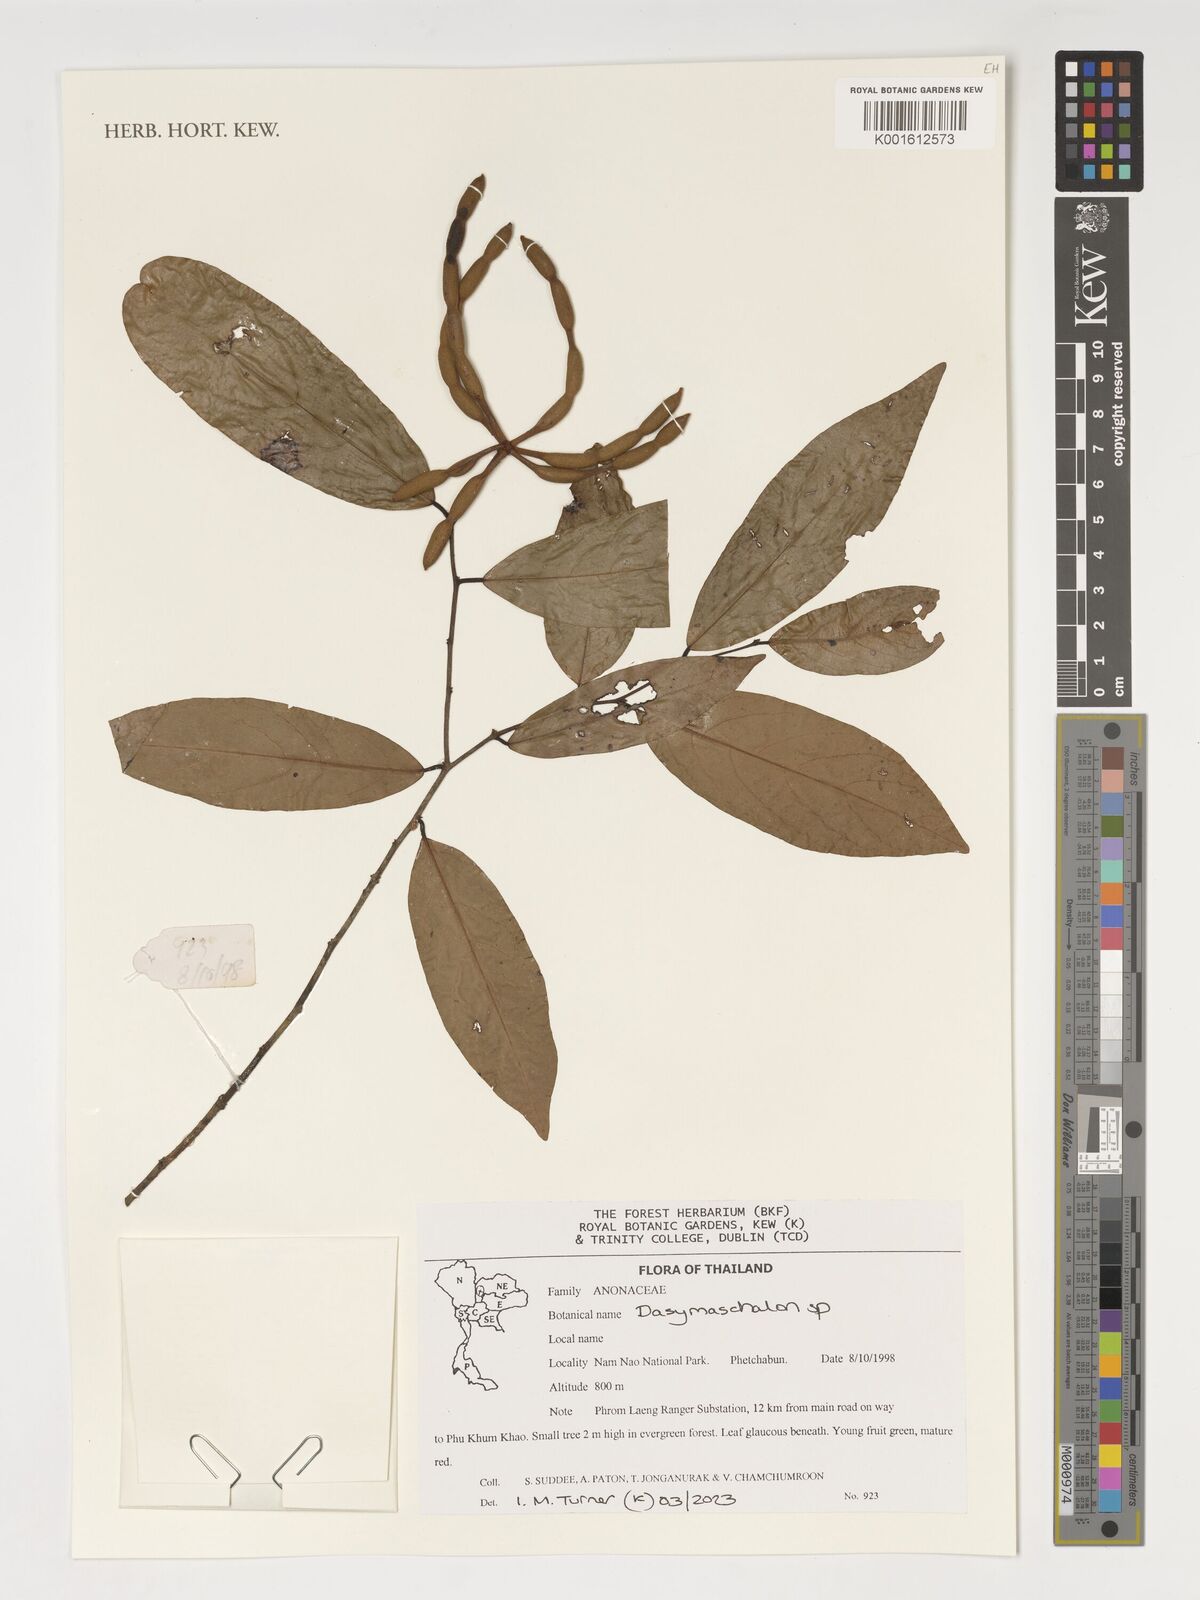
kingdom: Plantae
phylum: Tracheophyta
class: Magnoliopsida
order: Magnoliales
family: Annonaceae
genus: Dasymaschalon
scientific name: Dasymaschalon
